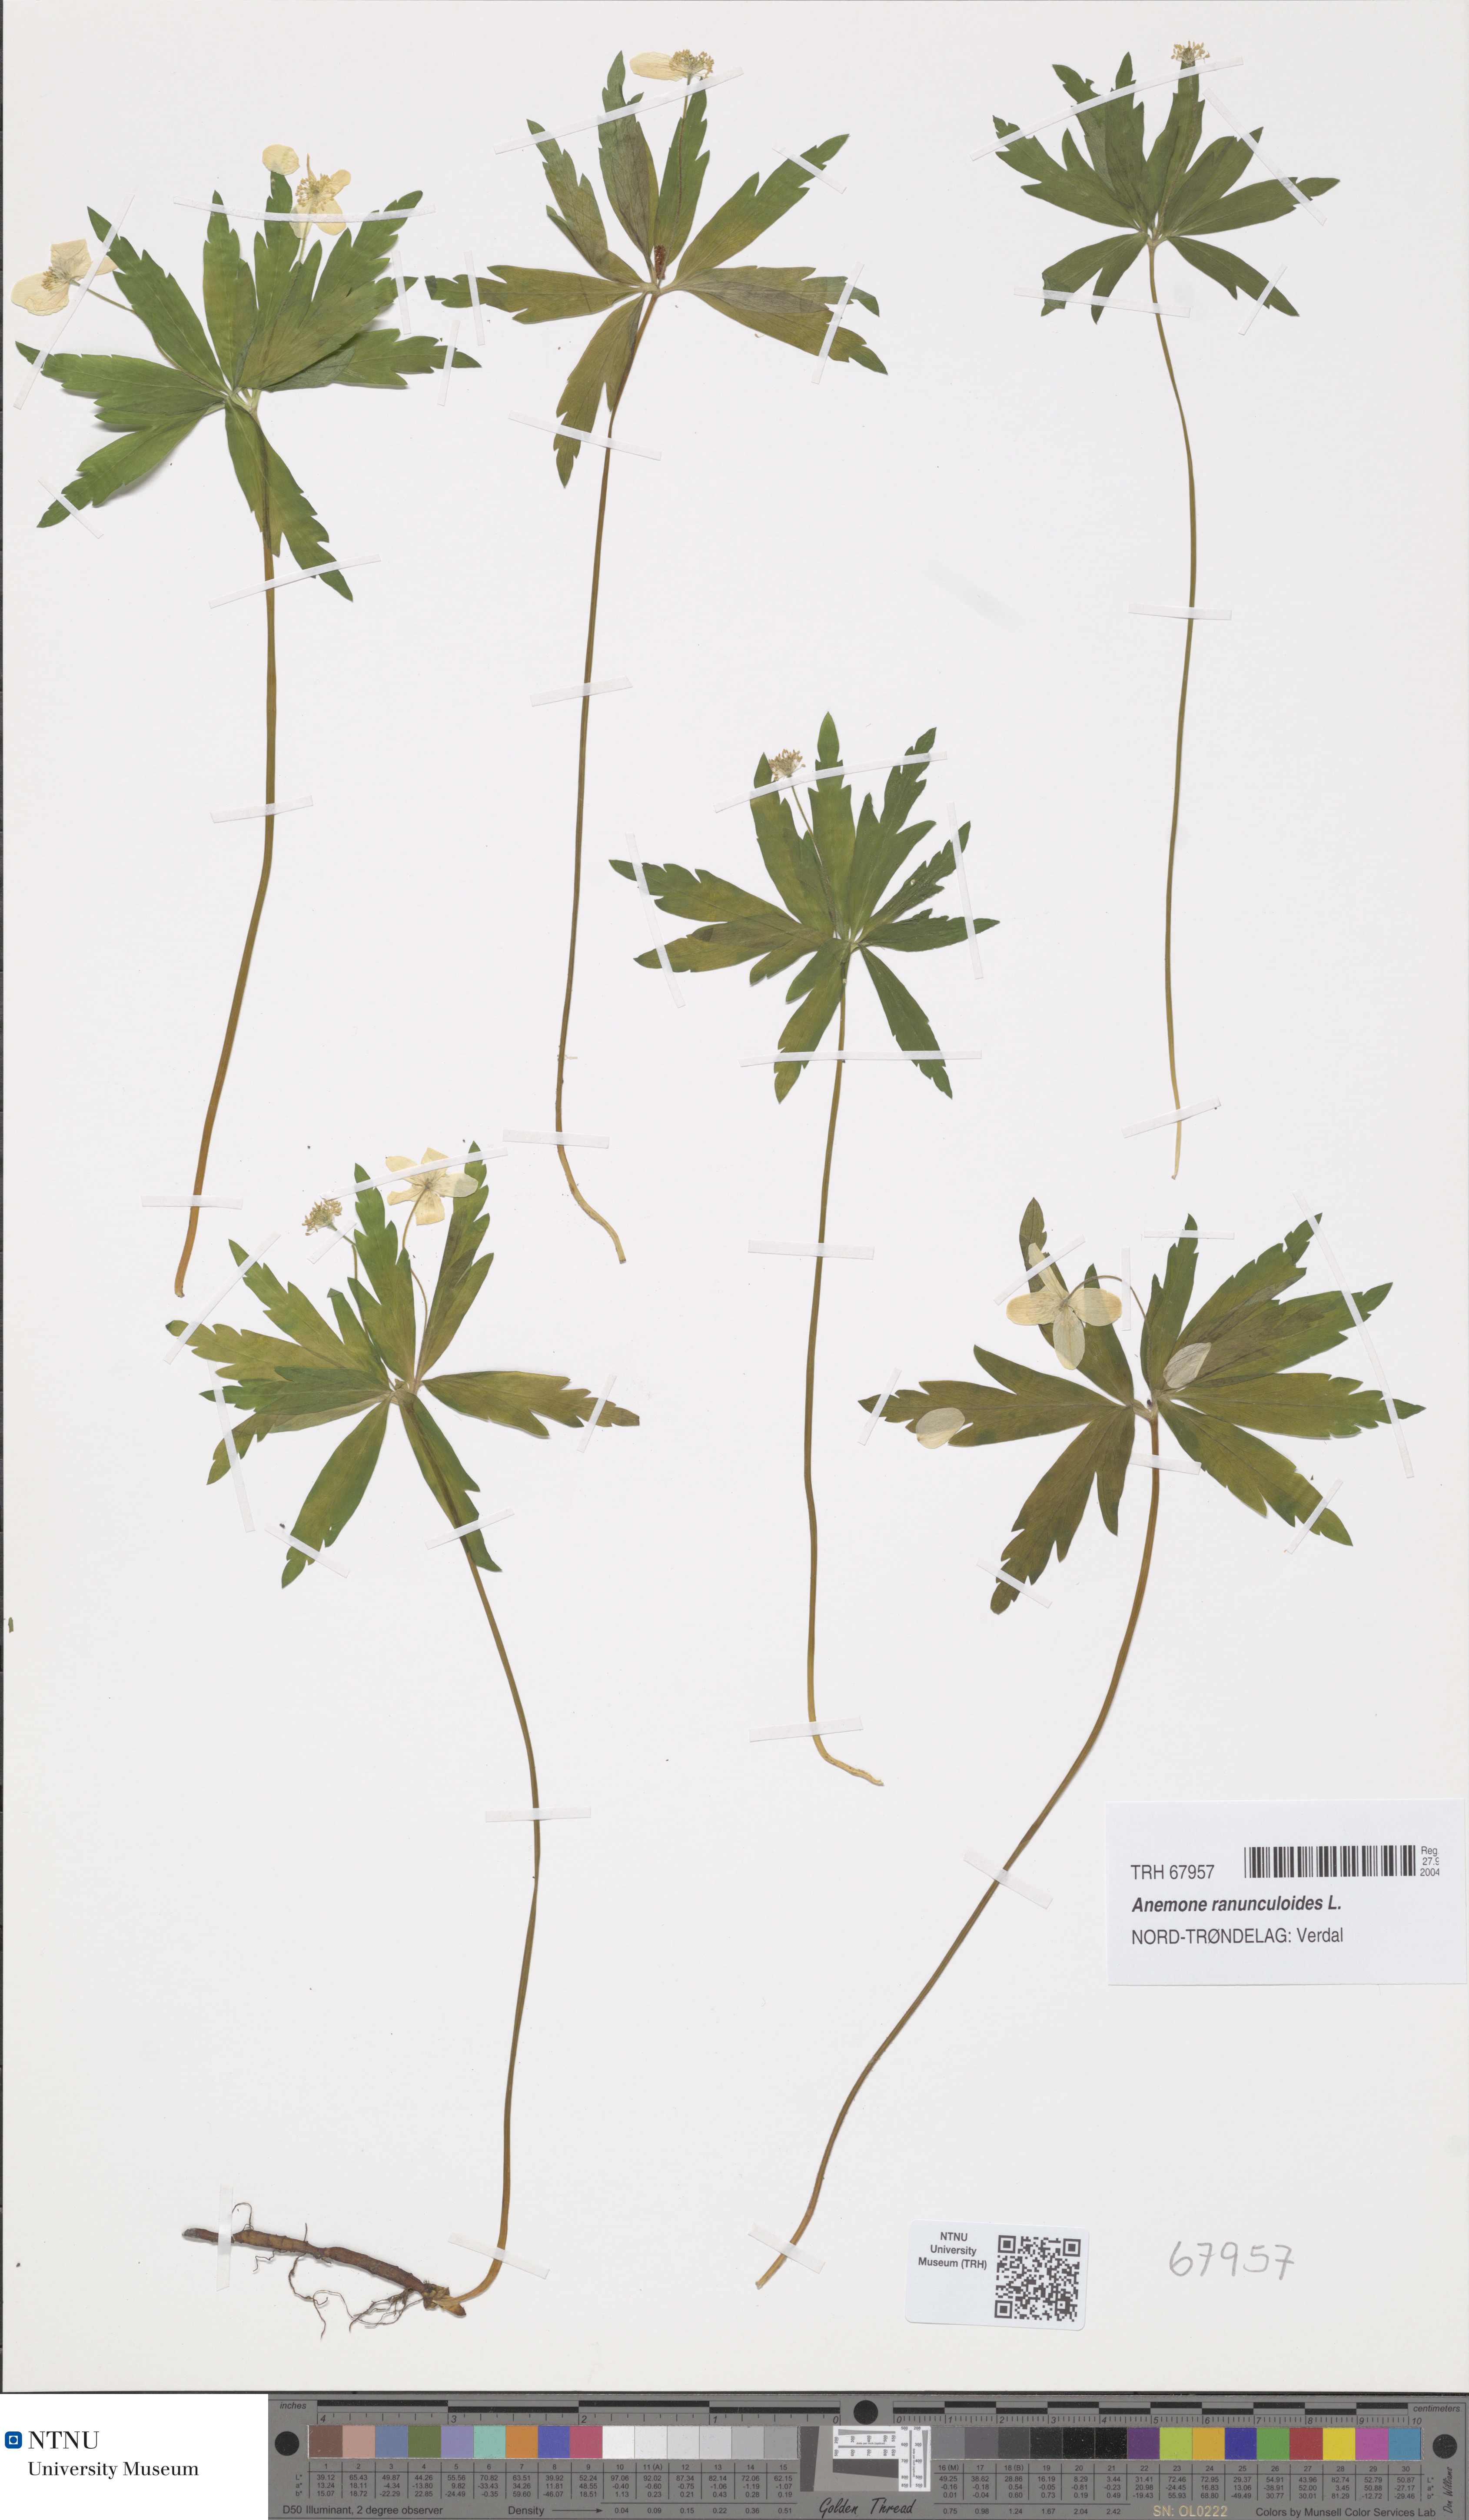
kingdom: Plantae
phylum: Tracheophyta
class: Magnoliopsida
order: Ranunculales
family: Ranunculaceae
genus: Anemone
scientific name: Anemone ranunculoides
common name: Yellow anemone
